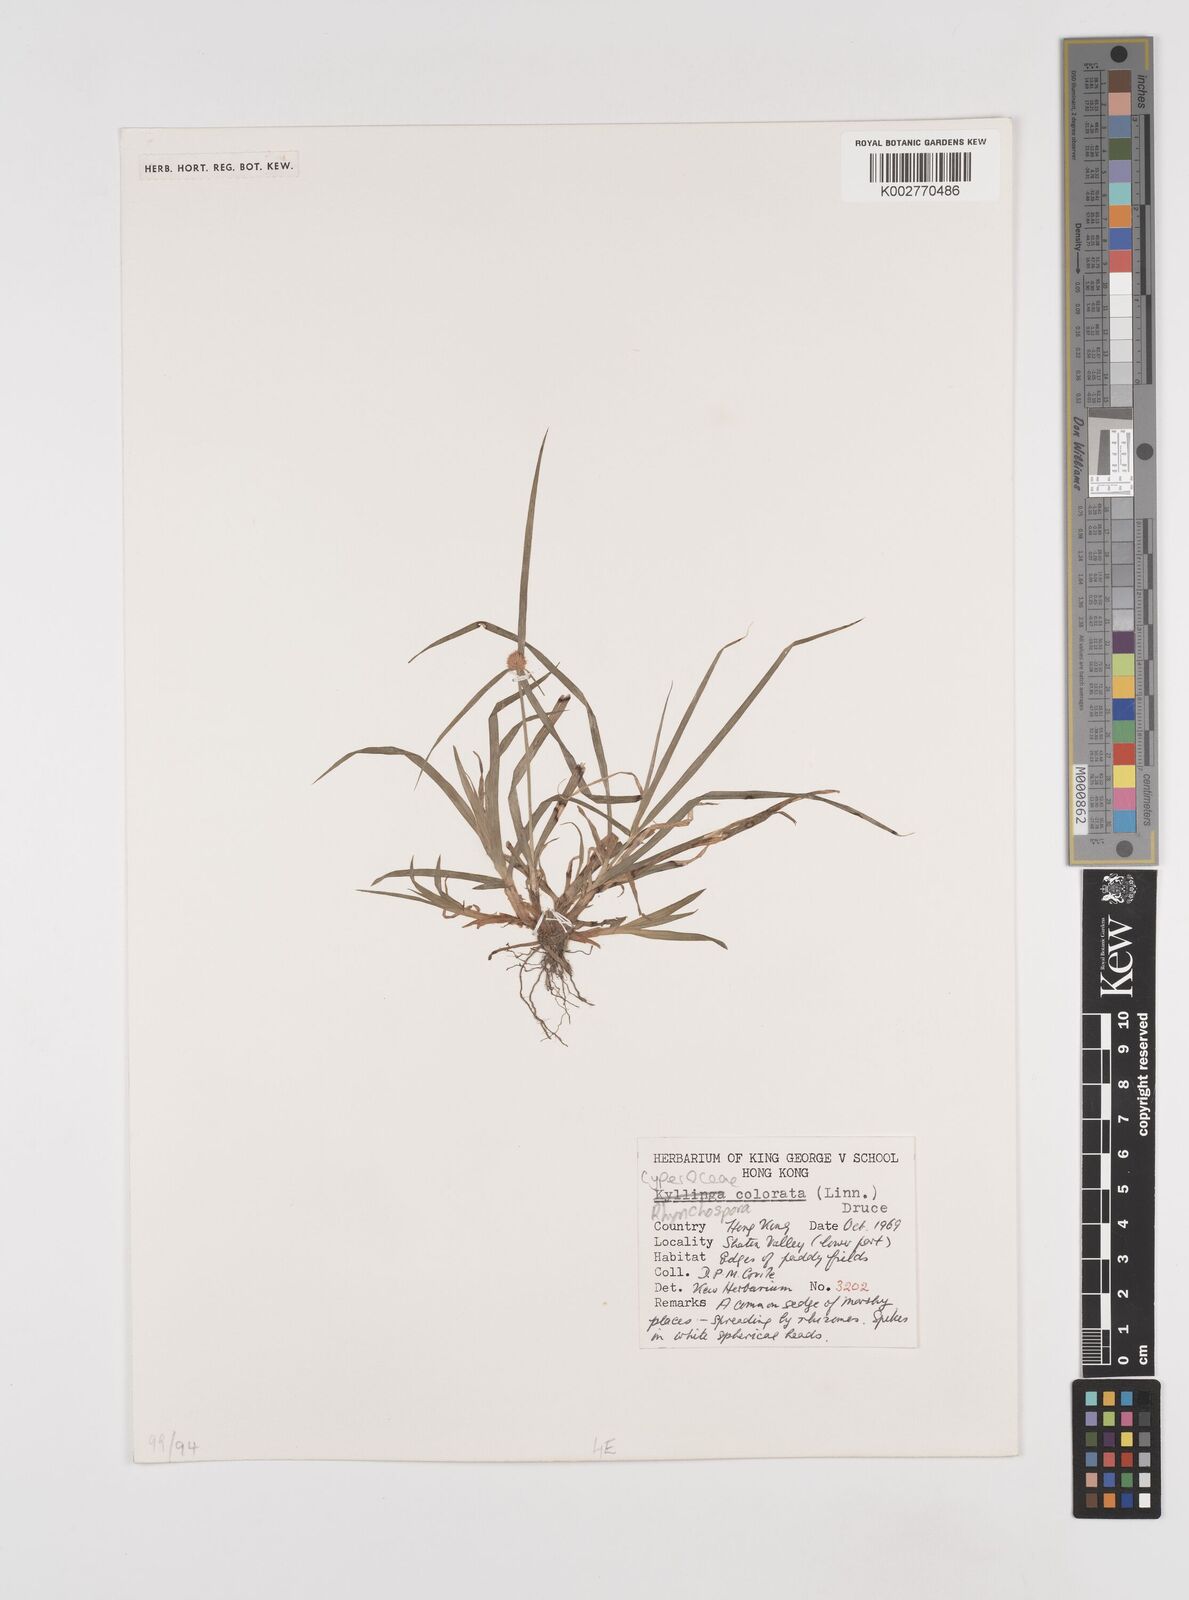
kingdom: Plantae
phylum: Tracheophyta
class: Liliopsida
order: Poales
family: Cyperaceae
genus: Rhynchospora
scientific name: Rhynchospora
